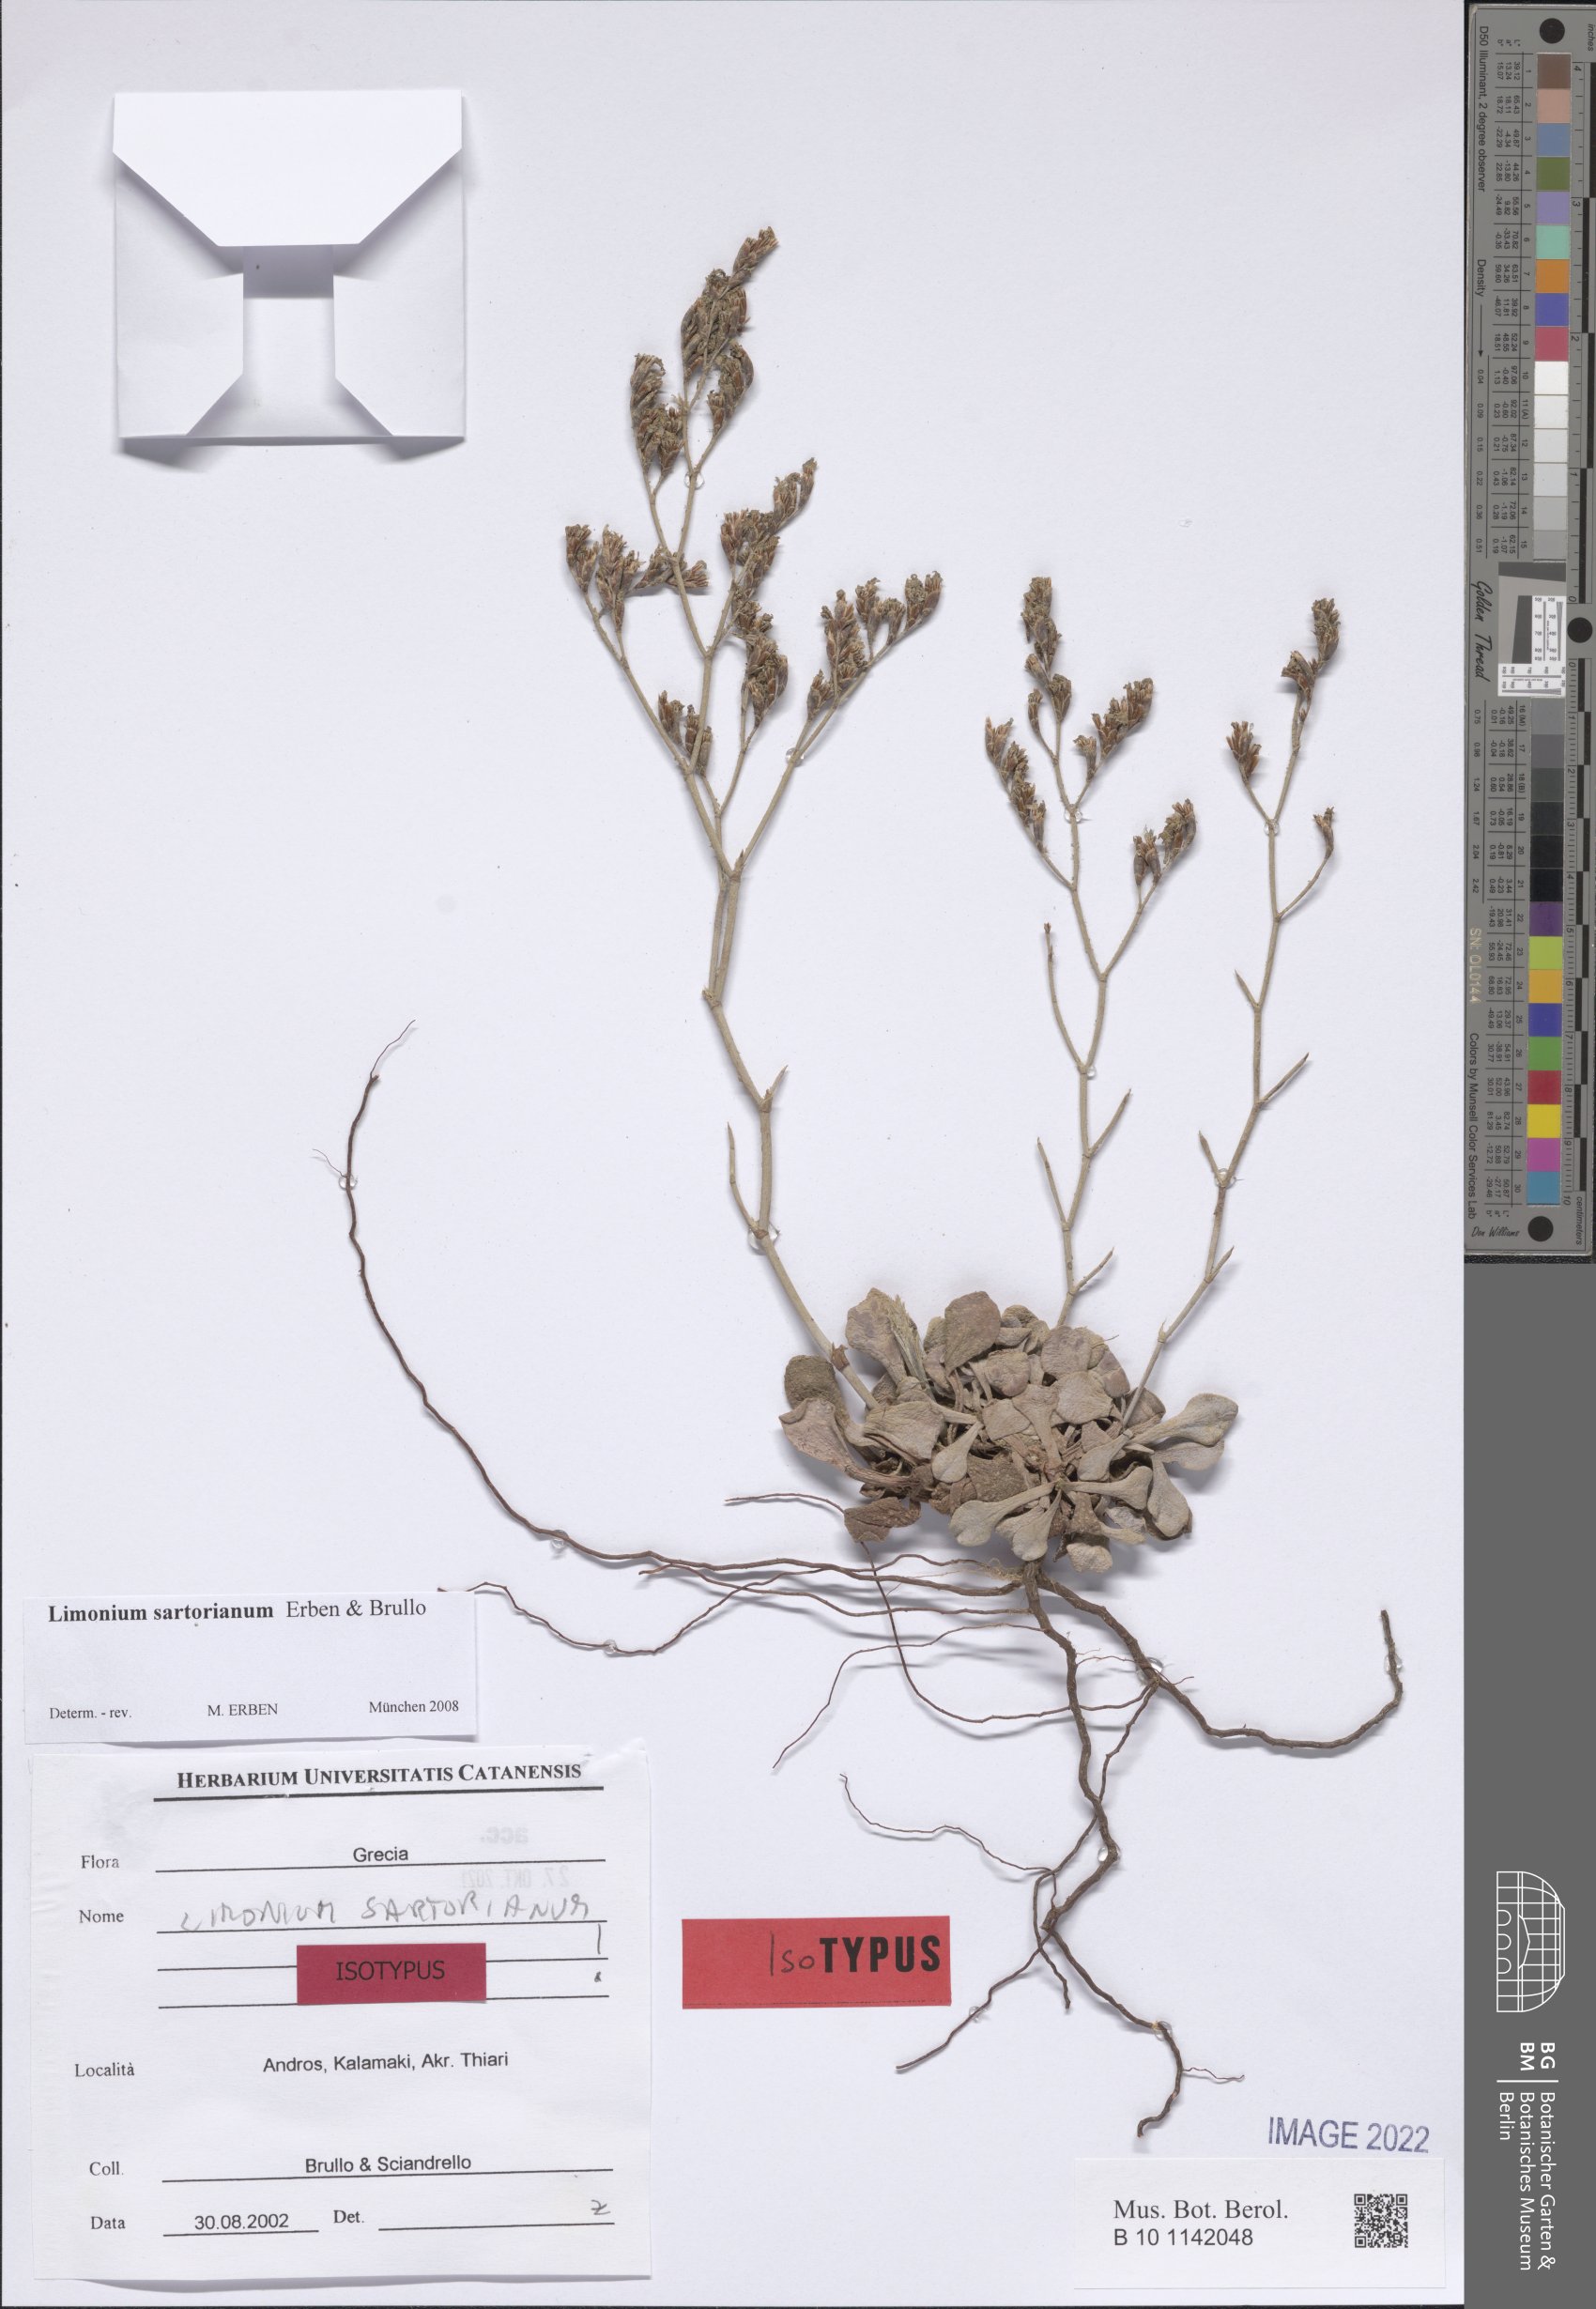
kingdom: Plantae
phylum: Tracheophyta
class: Magnoliopsida
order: Caryophyllales
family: Plumbaginaceae
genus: Limonium
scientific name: Limonium sartorianum
